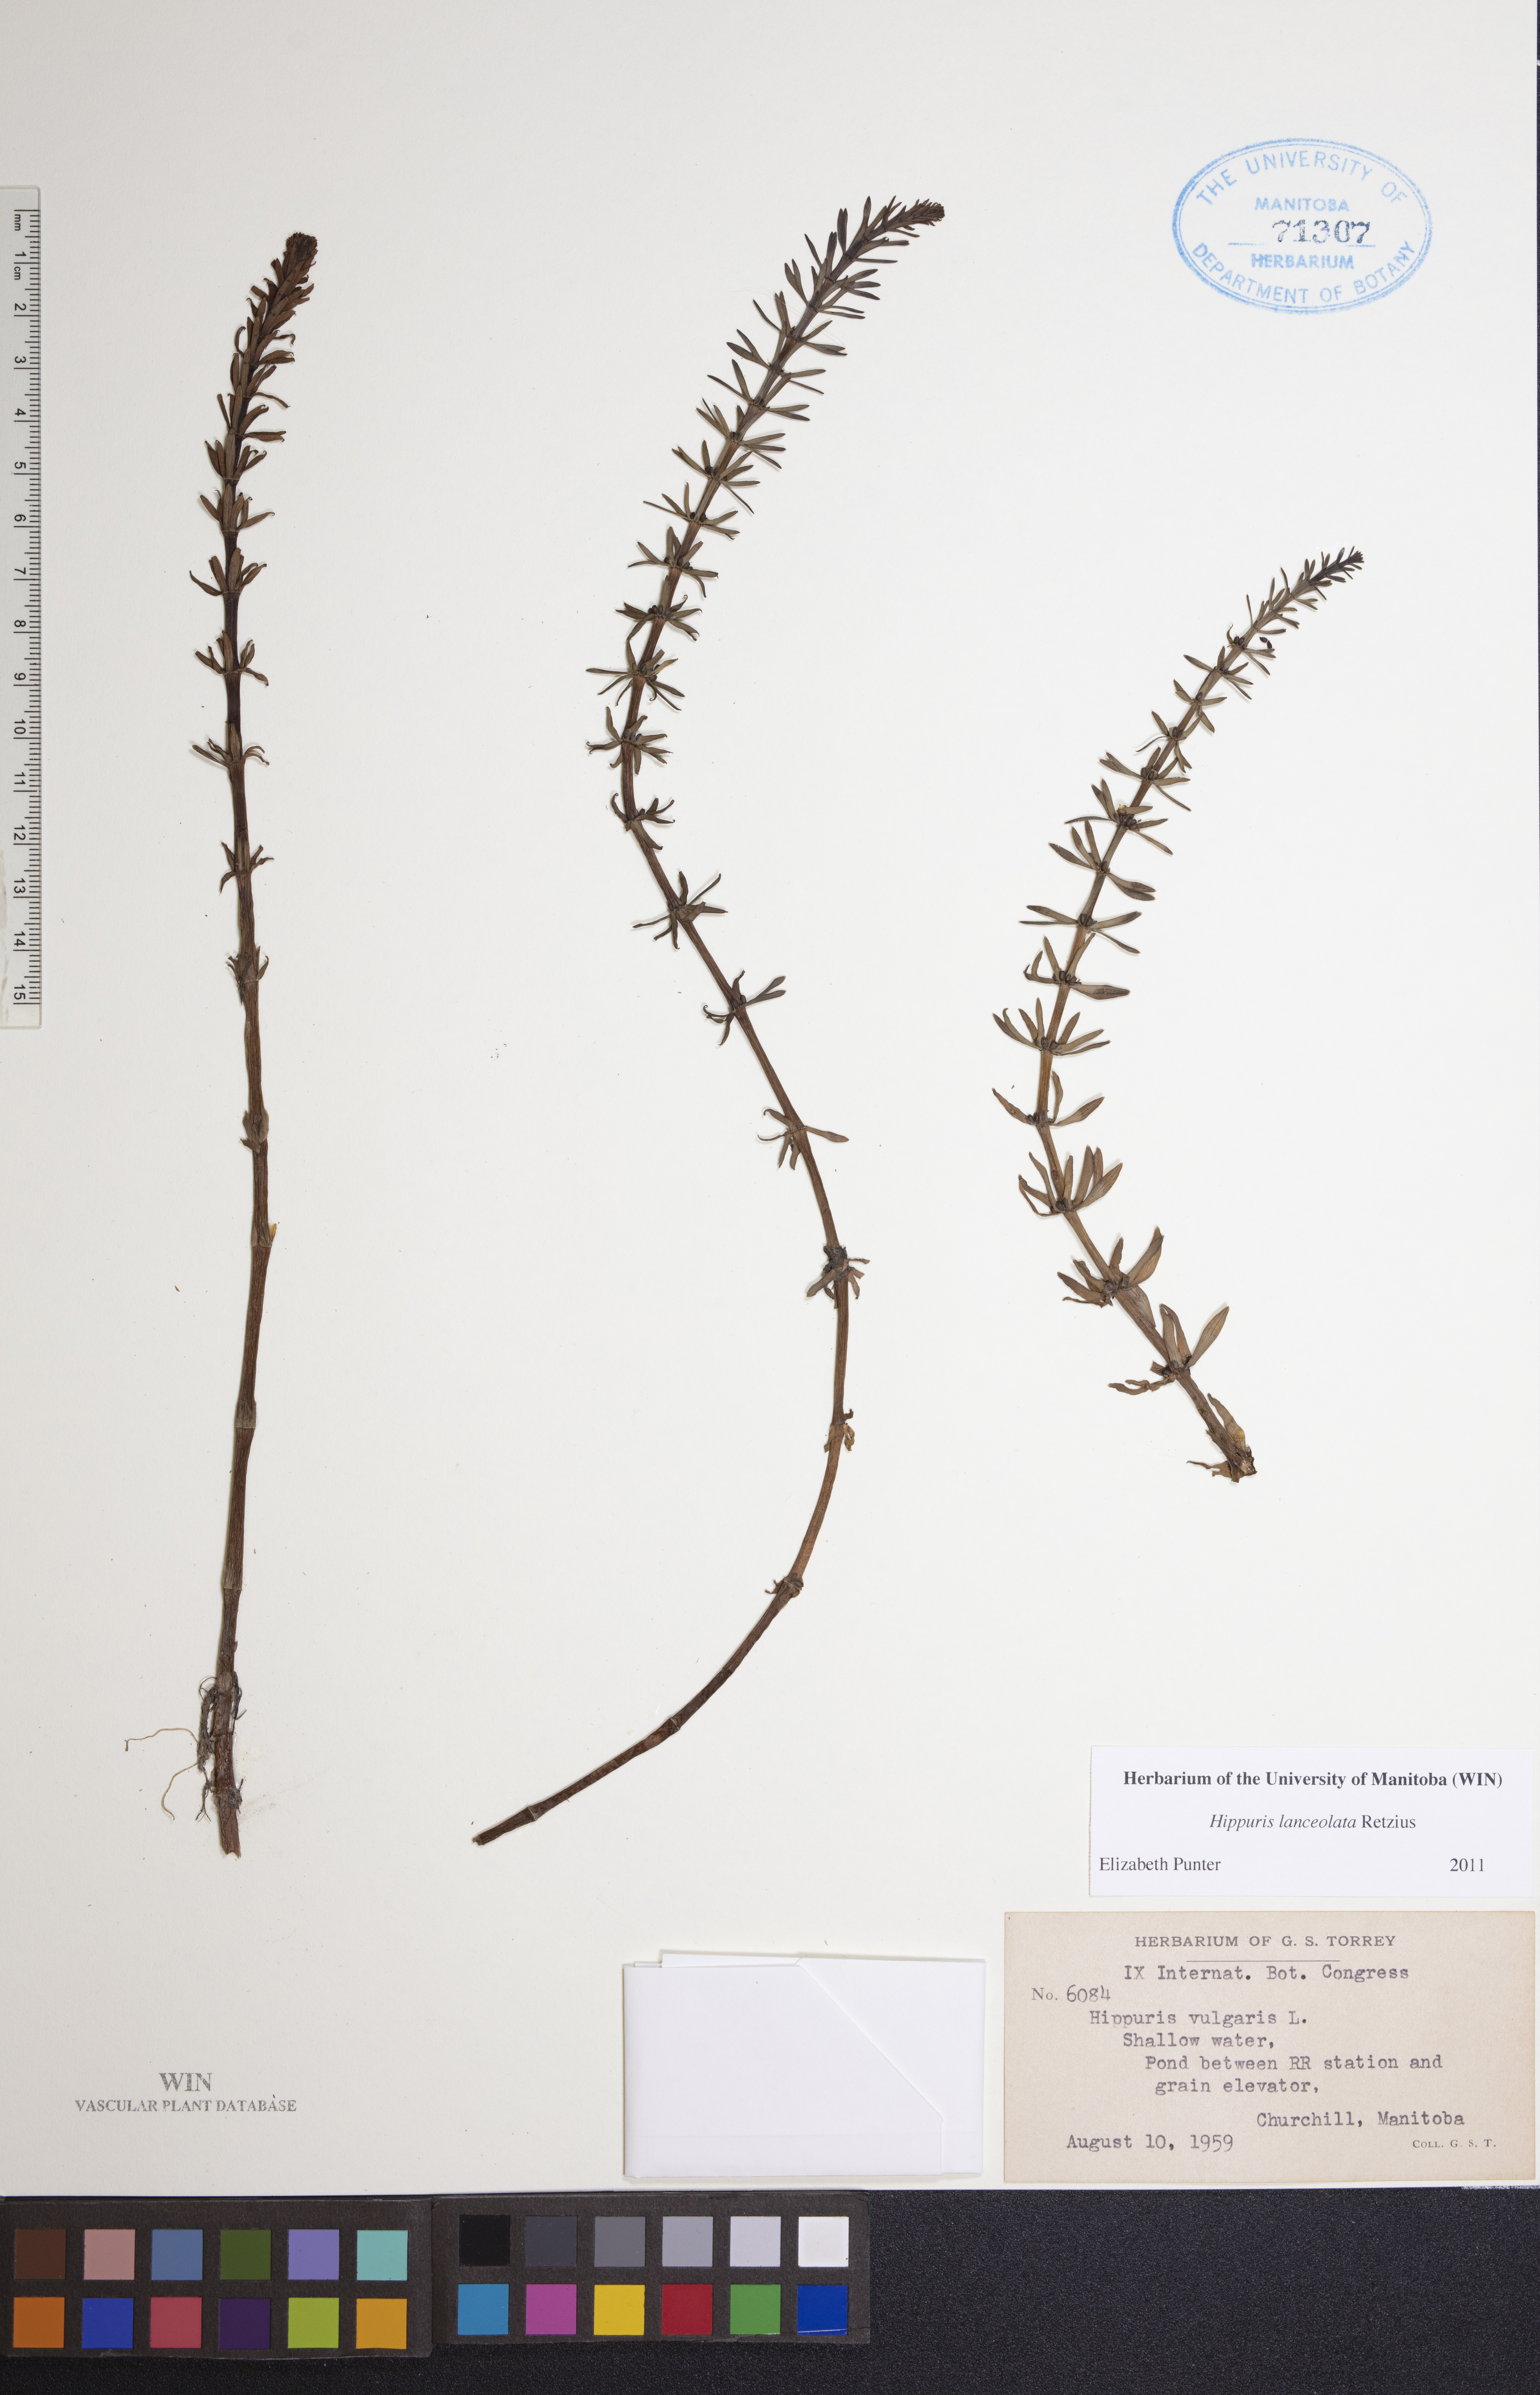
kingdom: Plantae
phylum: Tracheophyta
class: Magnoliopsida
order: Lamiales
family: Plantaginaceae
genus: Hippuris
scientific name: Hippuris lanceolata
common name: Lance-leaved mare's-tail
